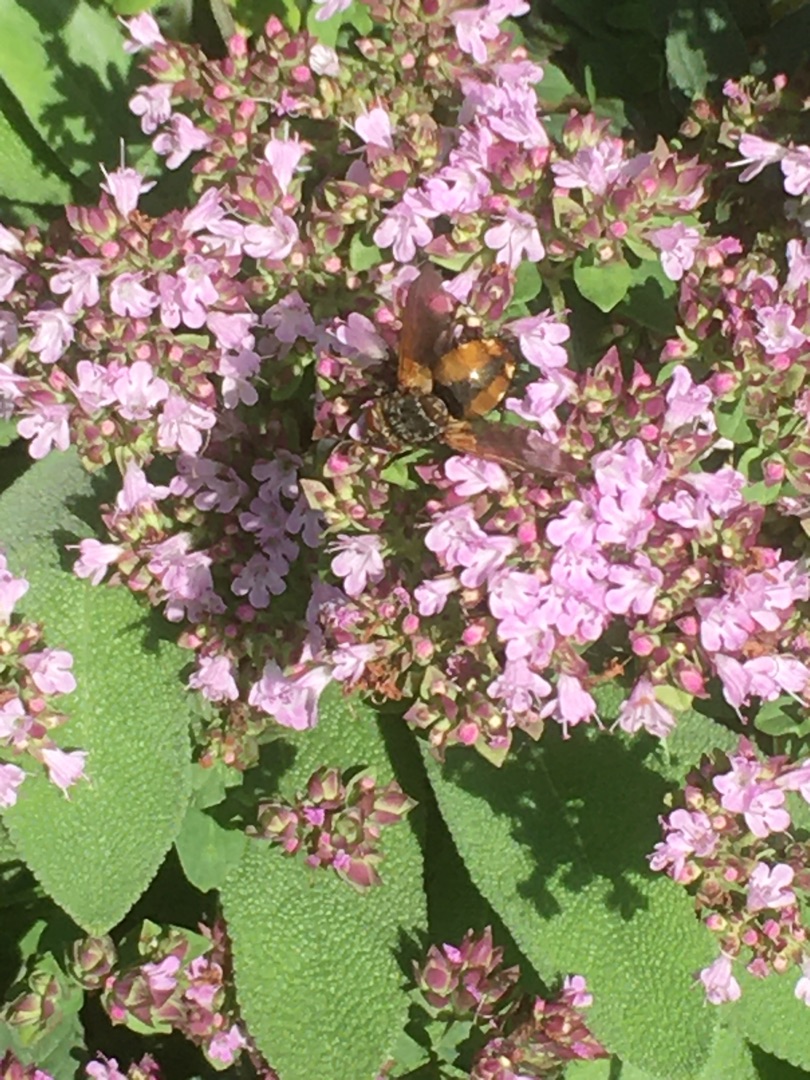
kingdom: Animalia
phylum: Arthropoda
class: Insecta
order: Diptera
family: Tachinidae
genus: Tachina
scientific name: Tachina fera
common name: Mellemfluen oskar
